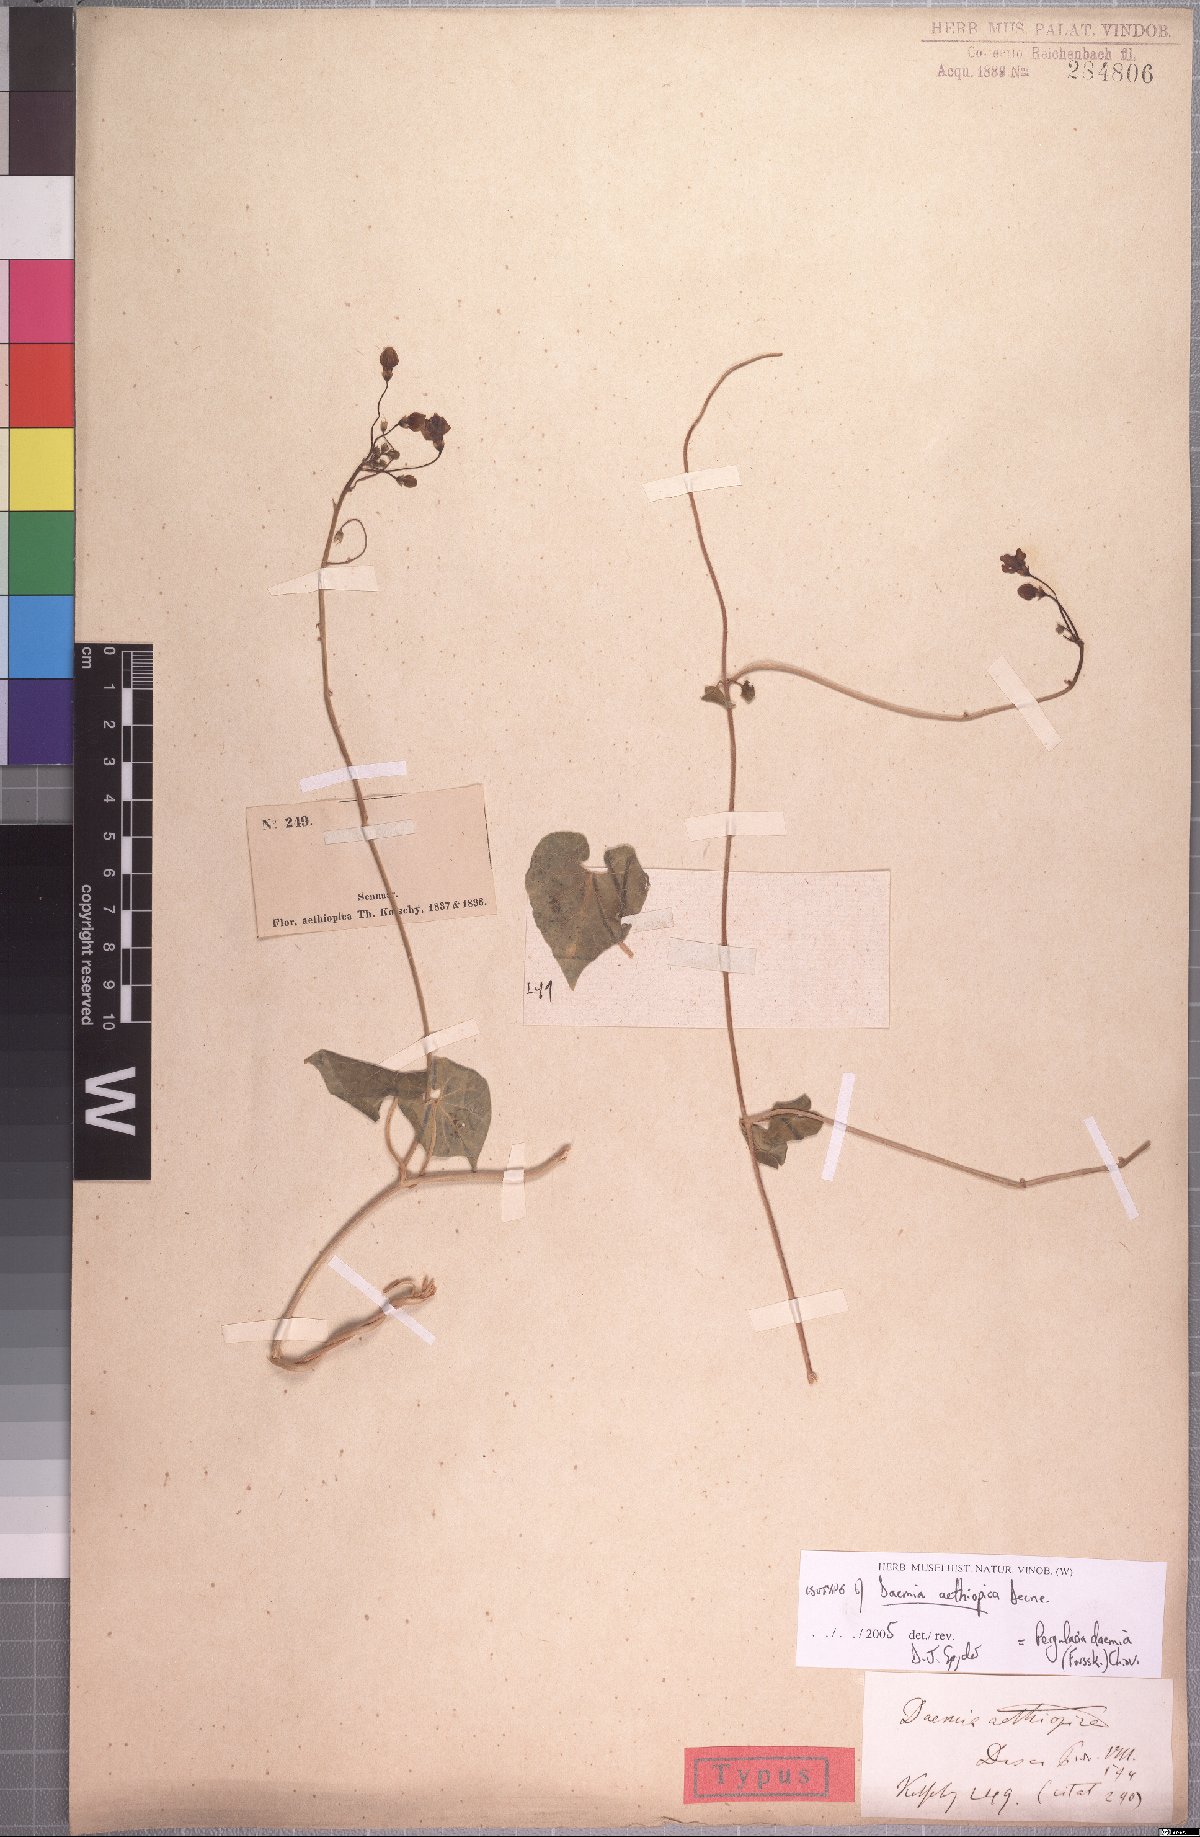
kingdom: Plantae
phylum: Tracheophyta
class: Magnoliopsida
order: Gentianales
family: Apocynaceae
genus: Pergularia
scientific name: Pergularia daemia
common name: Trellis-vine
